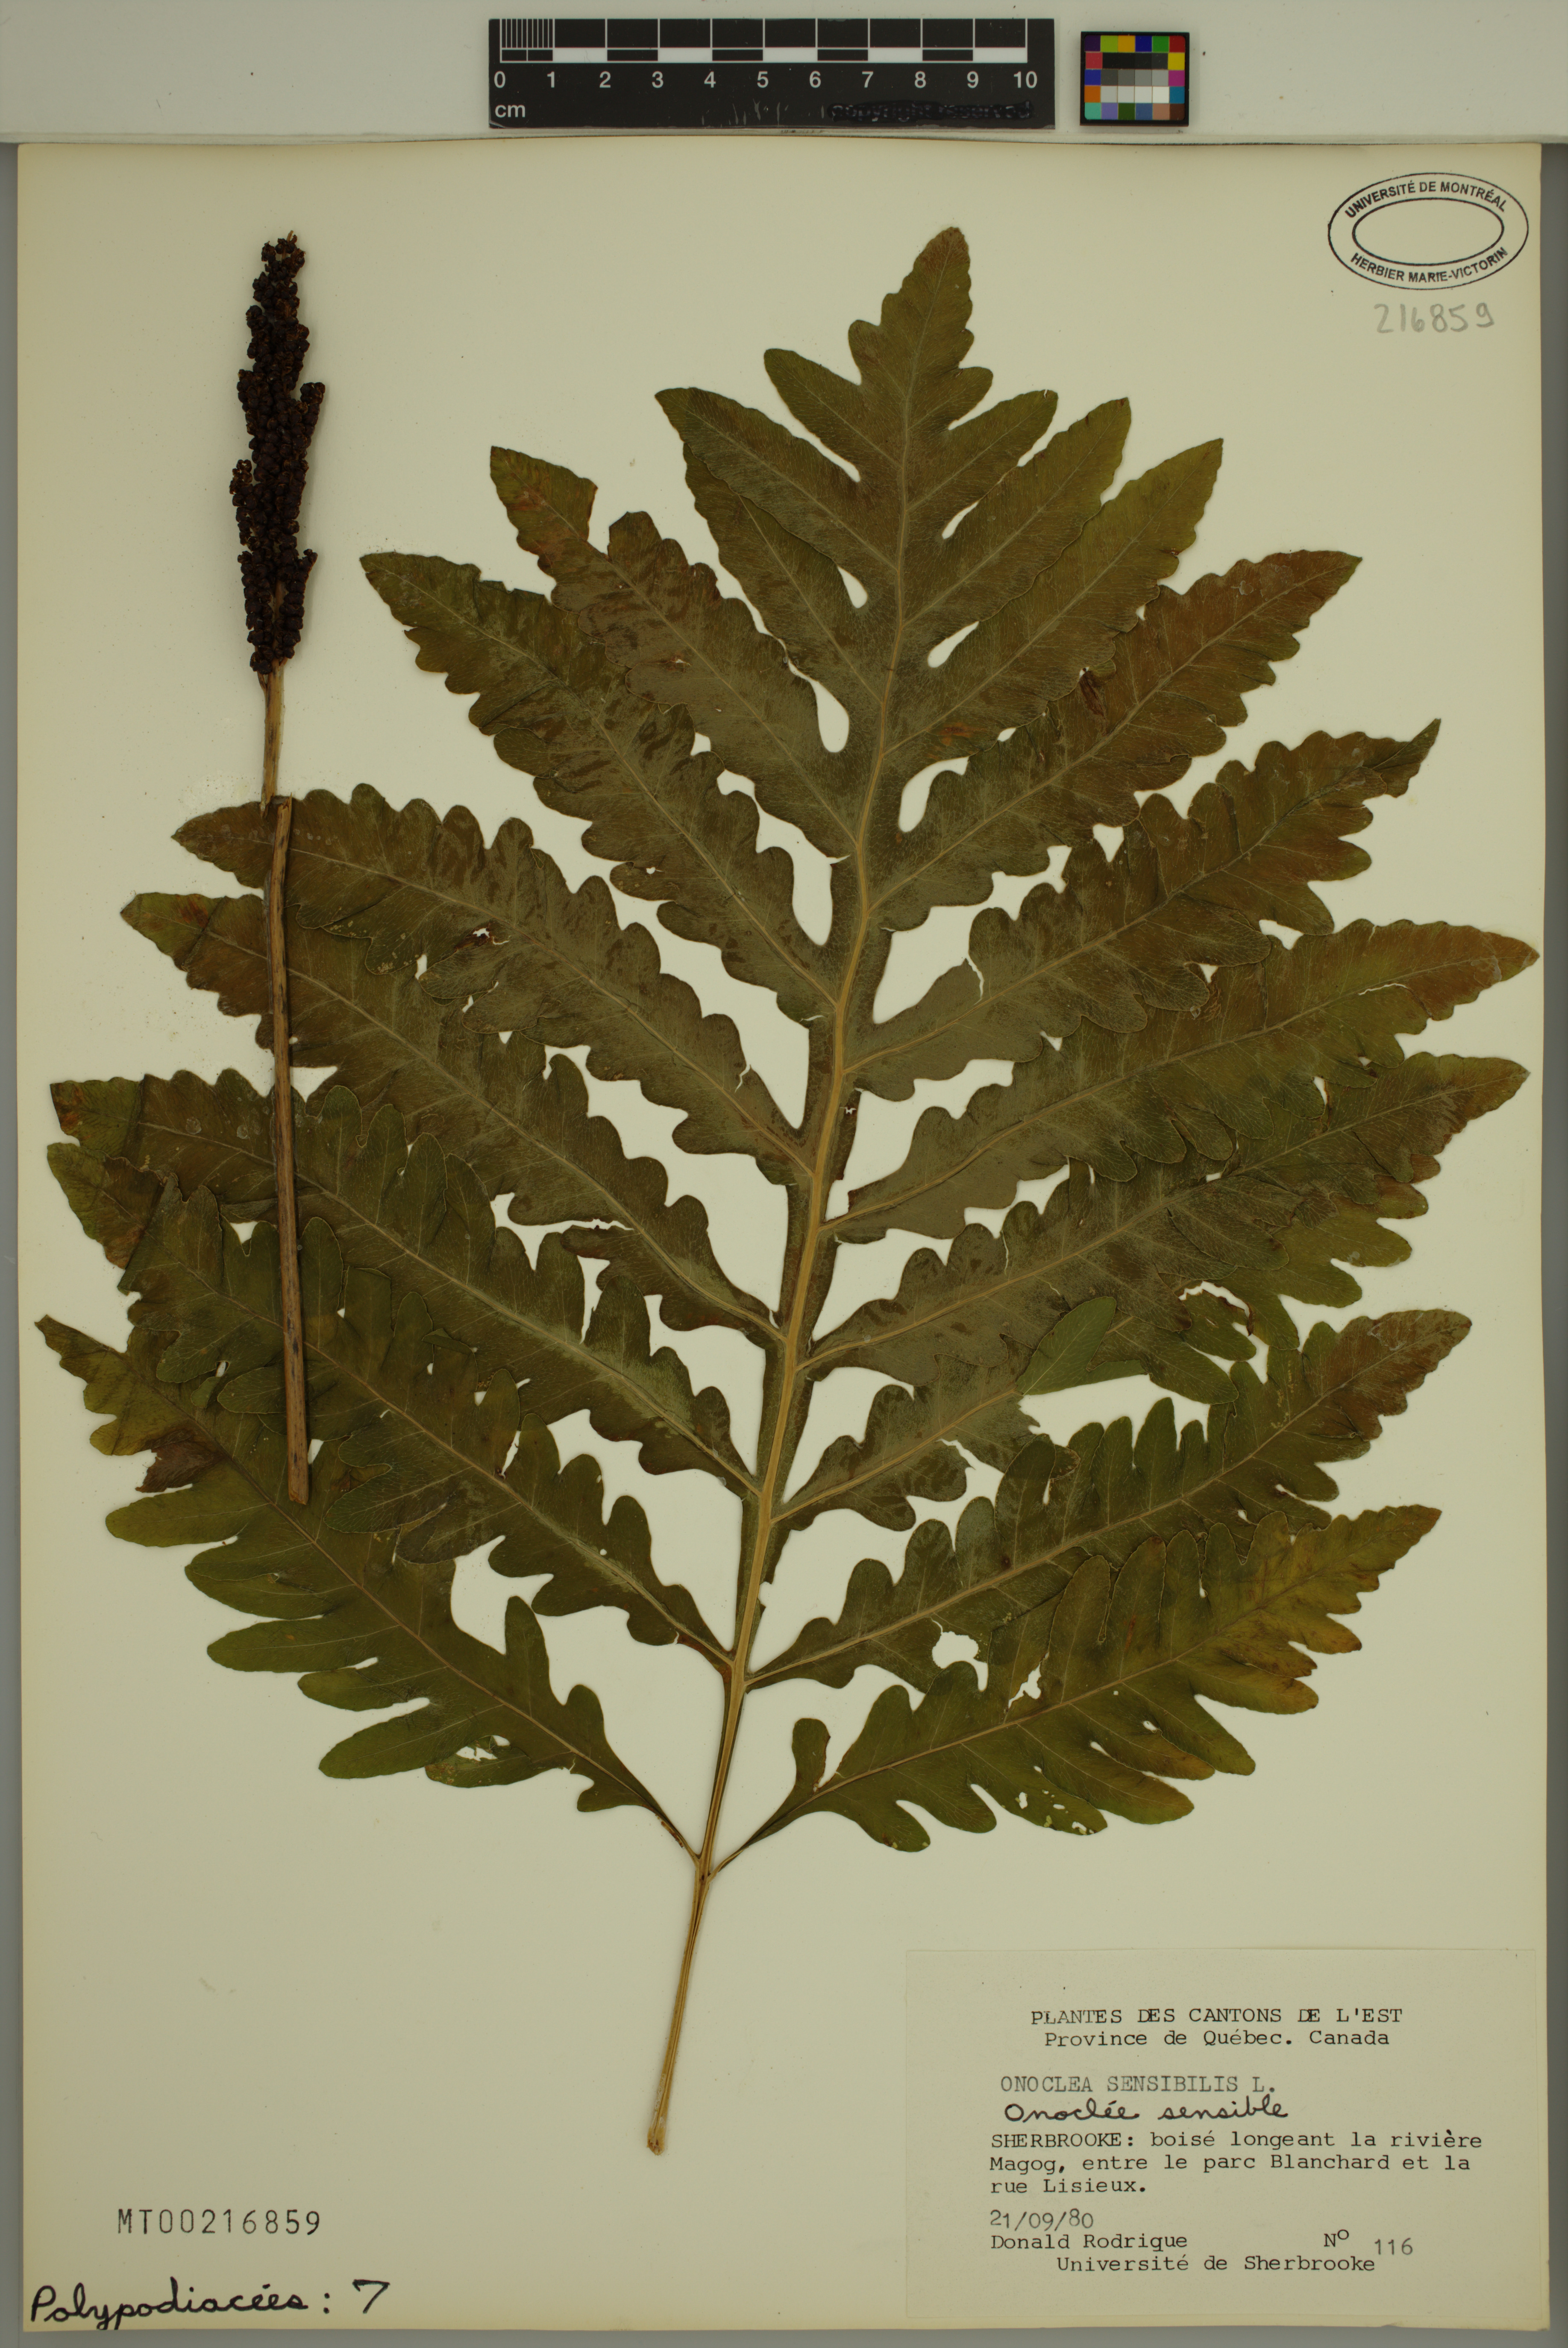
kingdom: Plantae
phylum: Tracheophyta
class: Polypodiopsida
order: Polypodiales
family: Onocleaceae
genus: Onoclea
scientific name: Onoclea sensibilis
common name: Sensitive fern
